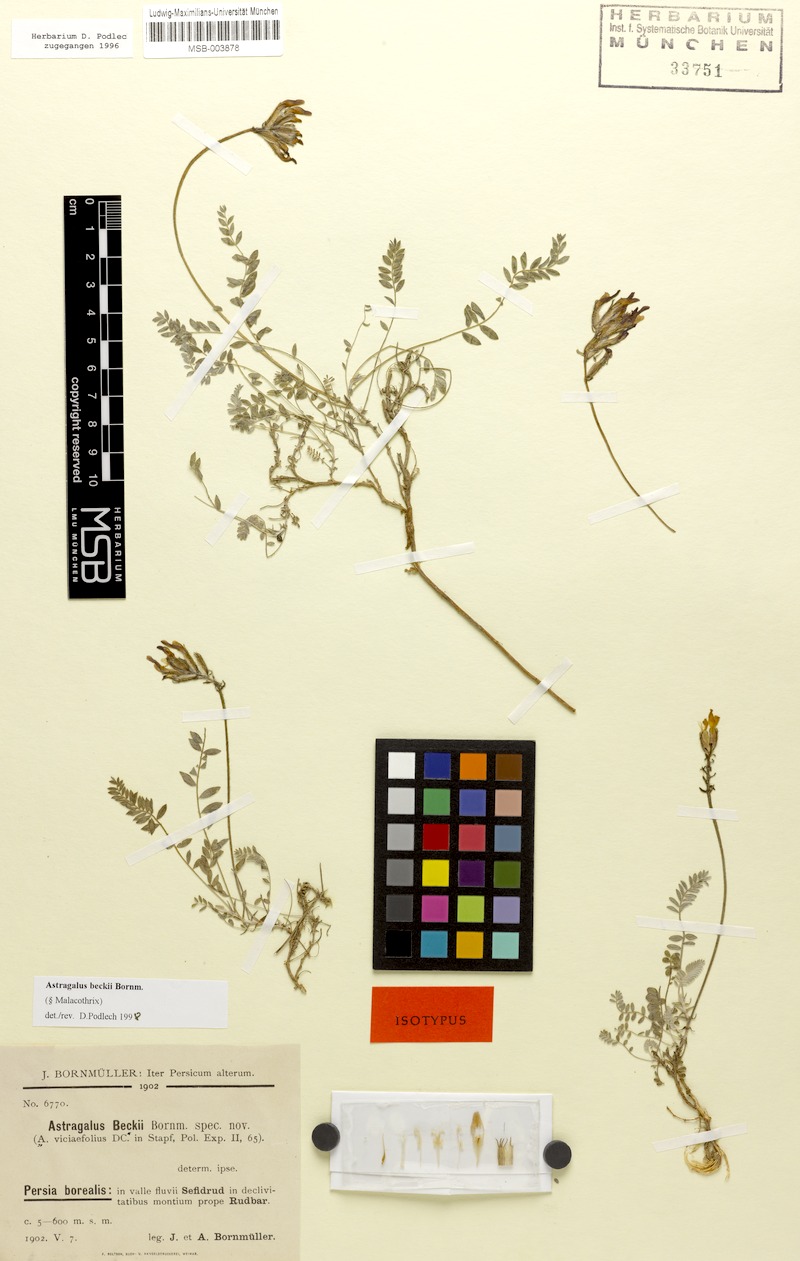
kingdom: Plantae
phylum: Tracheophyta
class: Magnoliopsida
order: Fabales
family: Fabaceae
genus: Astragalus
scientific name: Astragalus beckii
